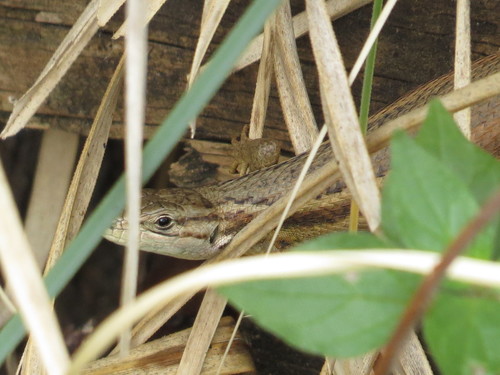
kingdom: Animalia
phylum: Chordata
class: Squamata
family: Lacertidae
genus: Psammodromus
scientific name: Psammodromus algirus
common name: Algerian psammodromus
